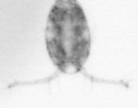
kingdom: Animalia
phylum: Arthropoda
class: Copepoda
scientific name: Copepoda
